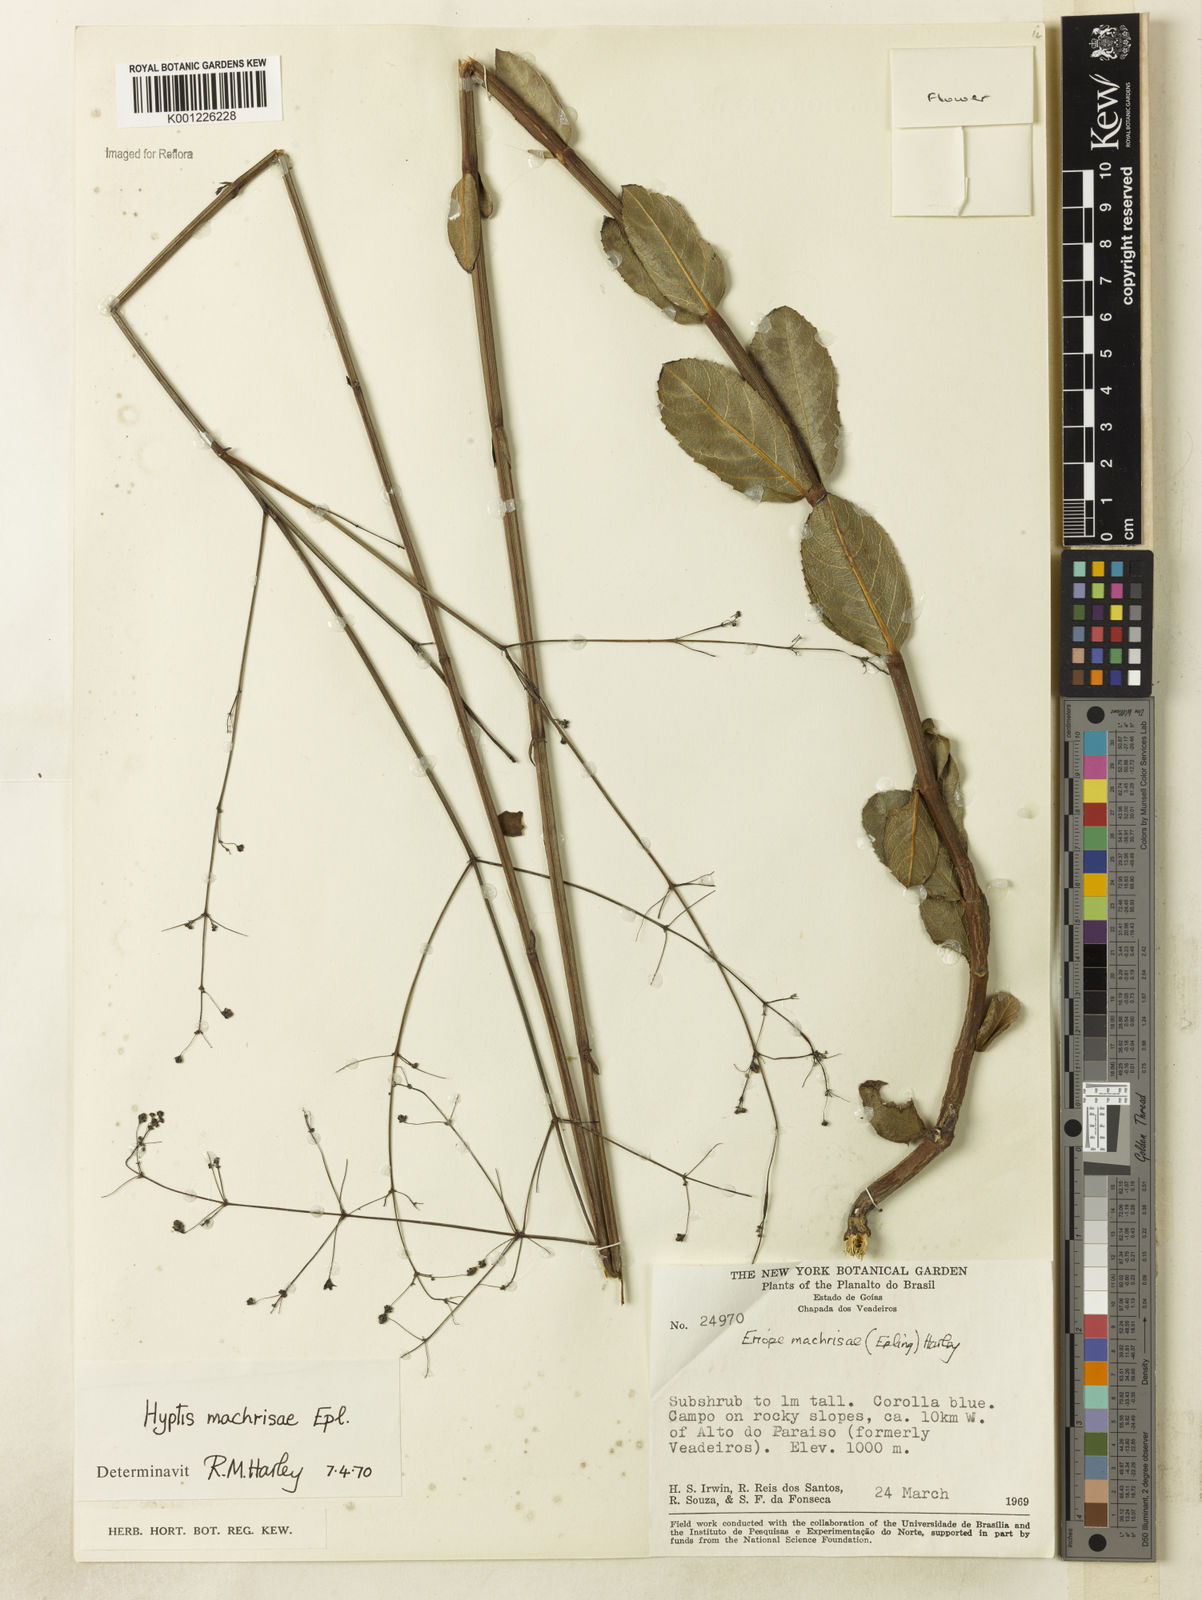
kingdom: Plantae
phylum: Tracheophyta
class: Magnoliopsida
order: Lamiales
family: Lamiaceae
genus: Eriope
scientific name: Eriope machrisae
